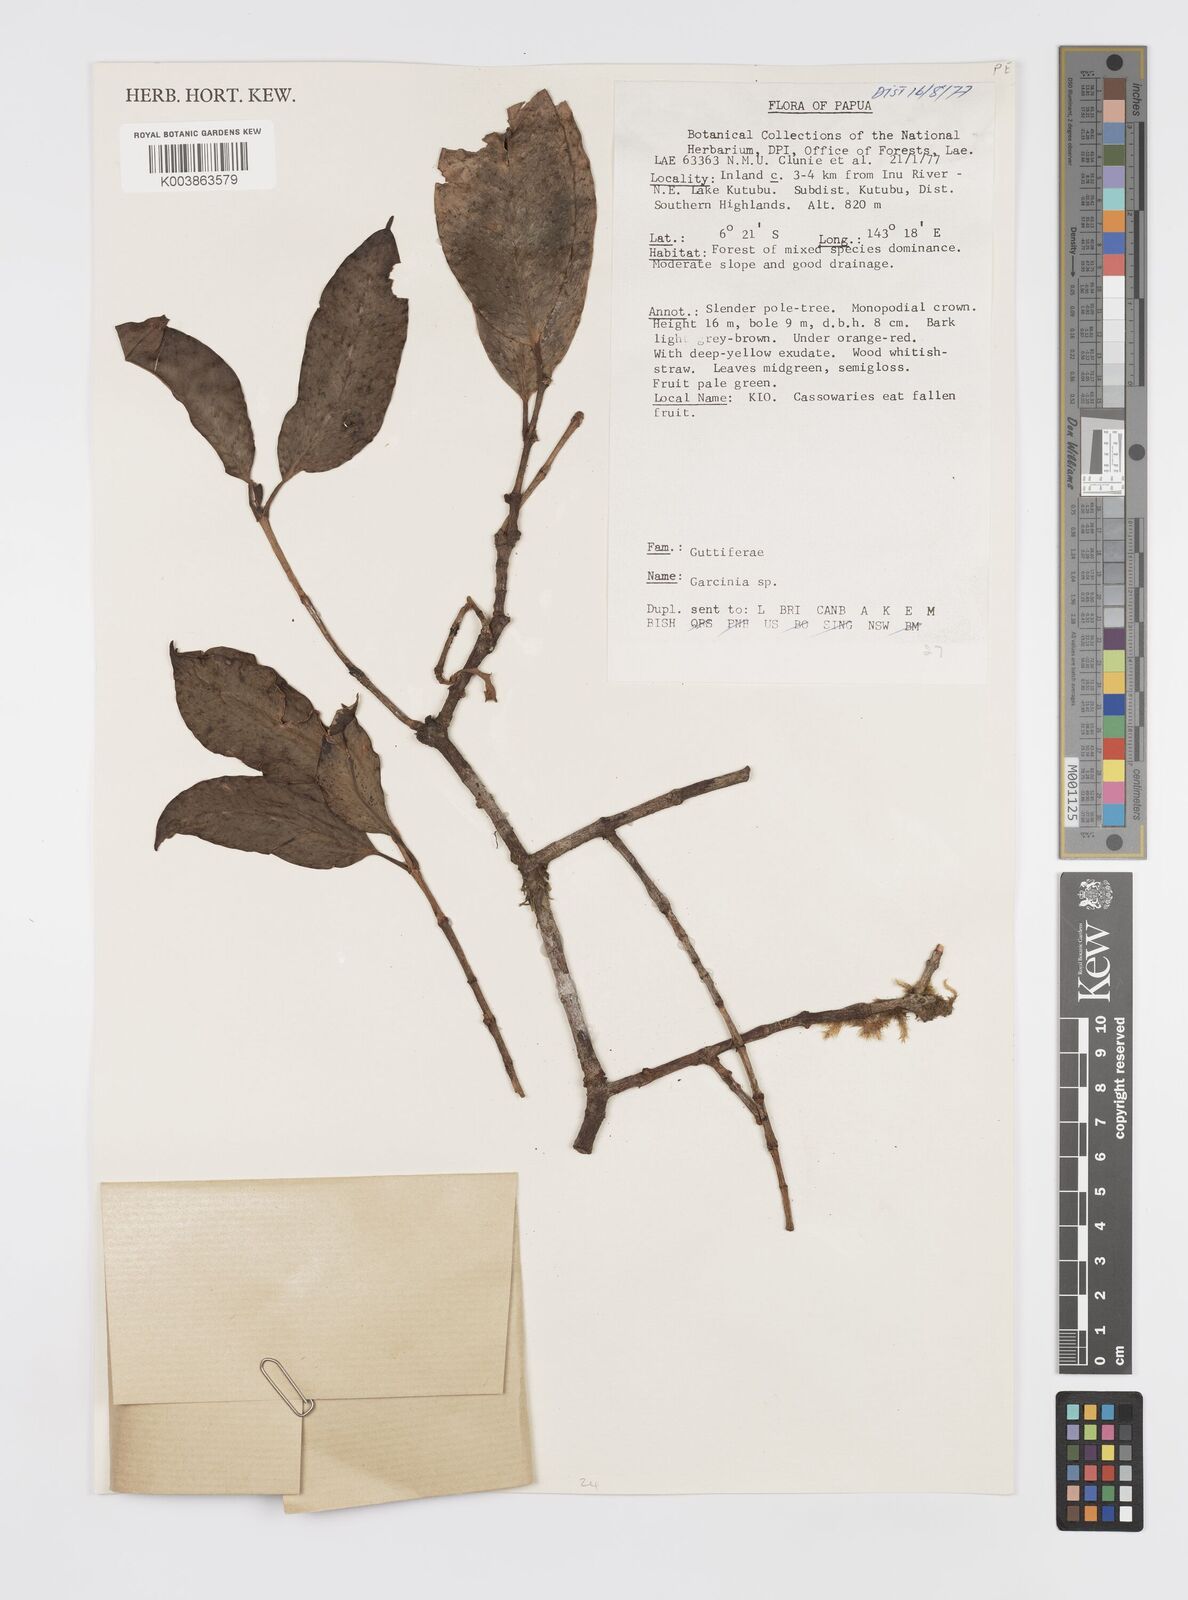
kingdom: Plantae
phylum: Tracheophyta
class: Magnoliopsida
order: Malpighiales
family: Clusiaceae
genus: Garcinia
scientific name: Garcinia
